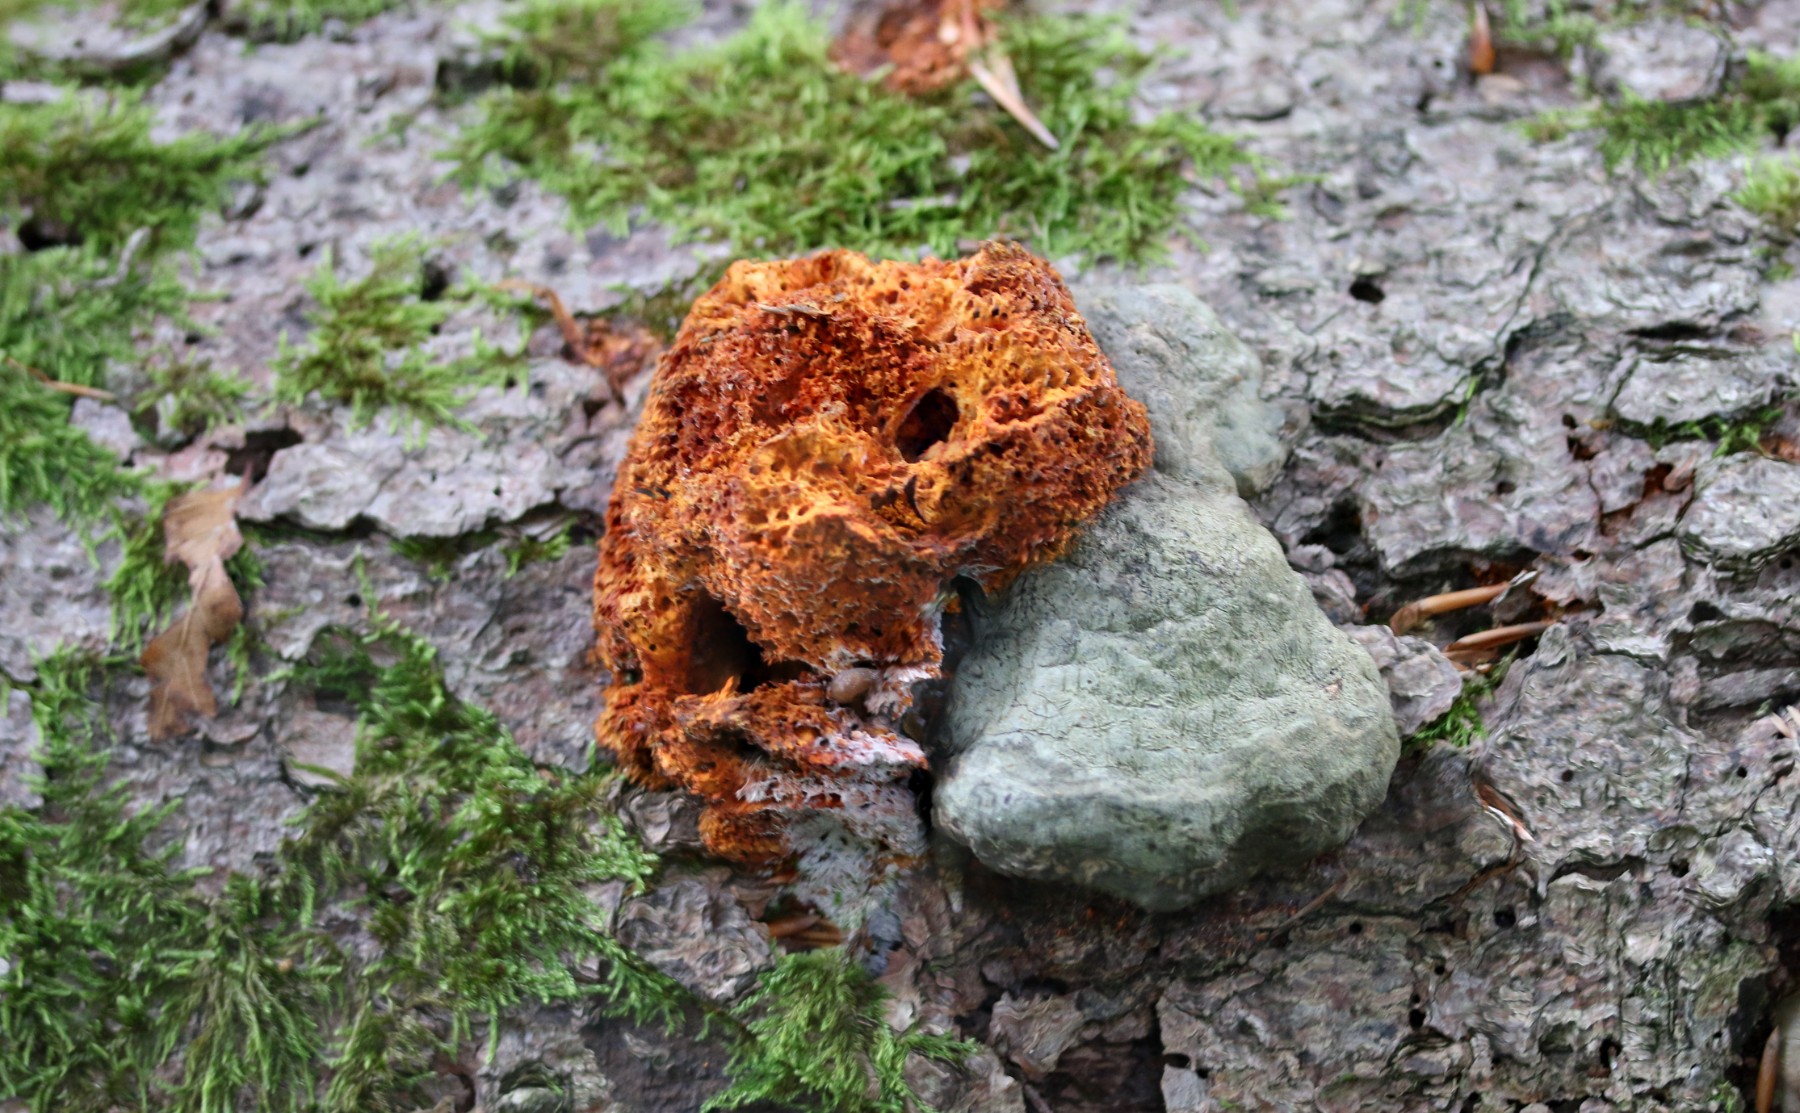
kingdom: Fungi
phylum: Basidiomycota
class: Agaricomycetes
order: Polyporales
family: Pycnoporellaceae
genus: Pycnoporellus
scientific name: Pycnoporellus fulgens
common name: flammeporesvamp
